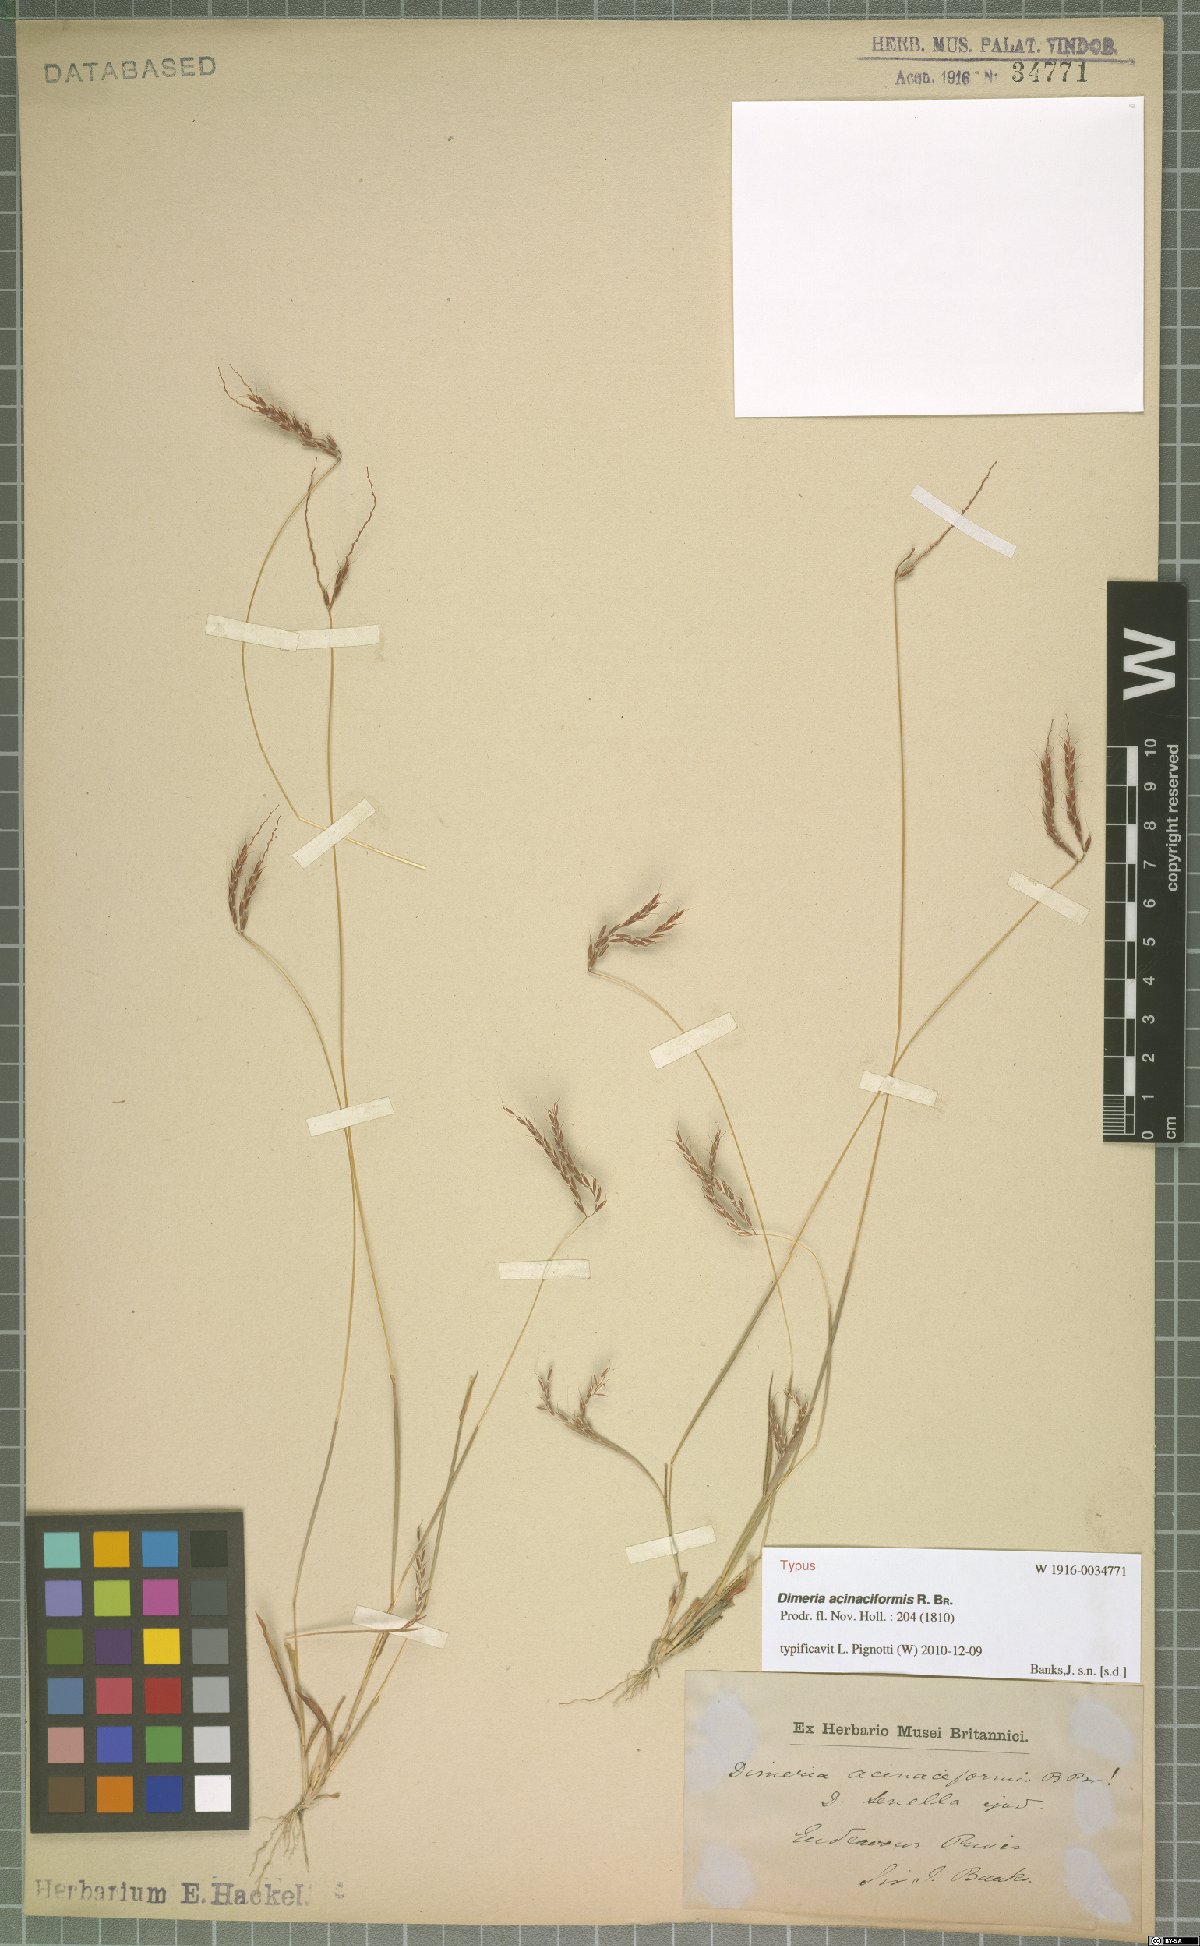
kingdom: Plantae
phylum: Tracheophyta
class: Liliopsida
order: Poales
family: Poaceae
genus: Dimeria
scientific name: Dimeria acinaciformis
